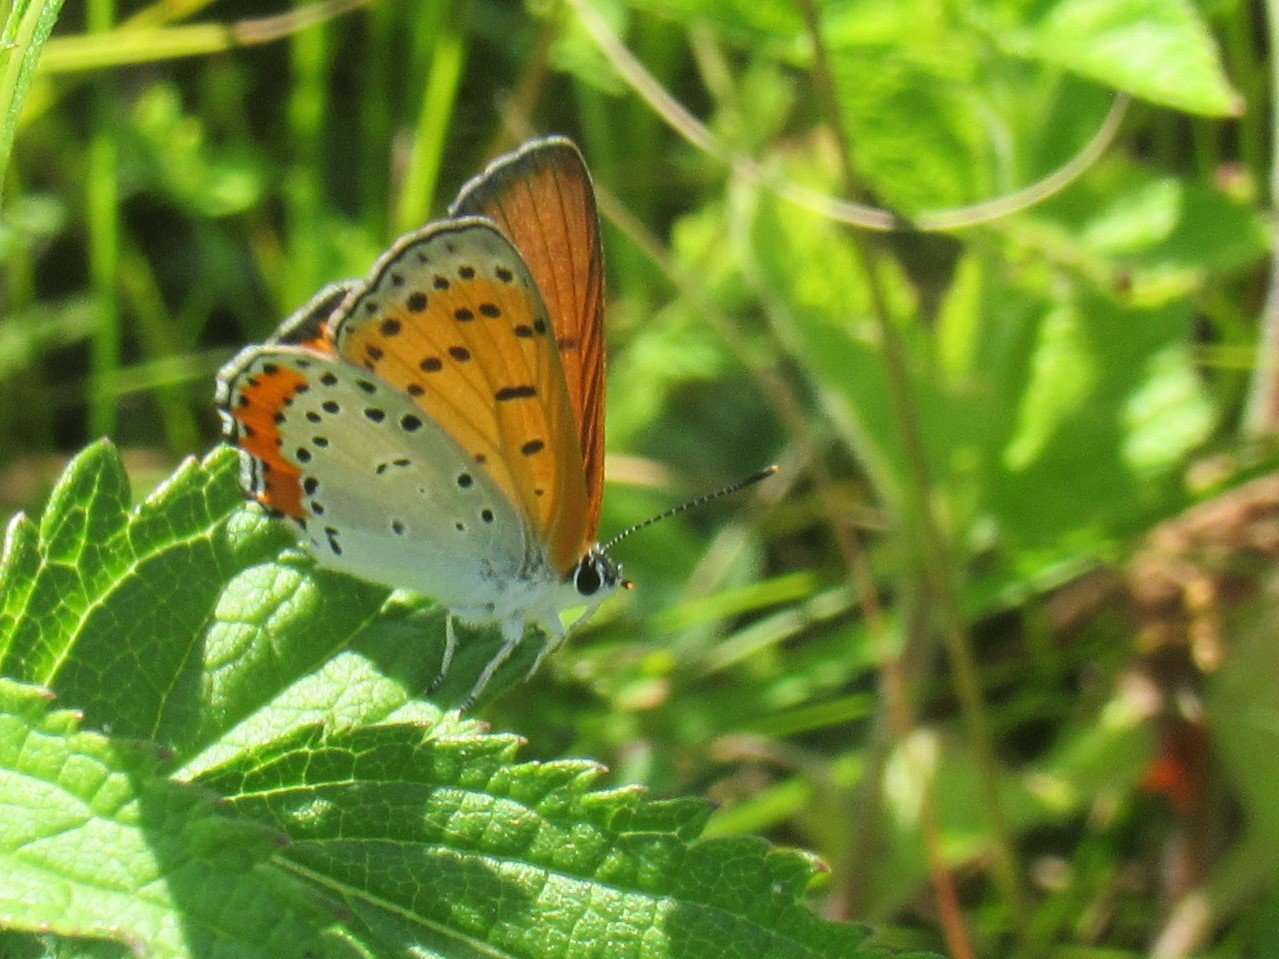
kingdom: Animalia
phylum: Arthropoda
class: Insecta
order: Lepidoptera
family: Sesiidae
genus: Sesia
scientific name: Sesia Lycaena hyllus
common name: Bronze Copper
